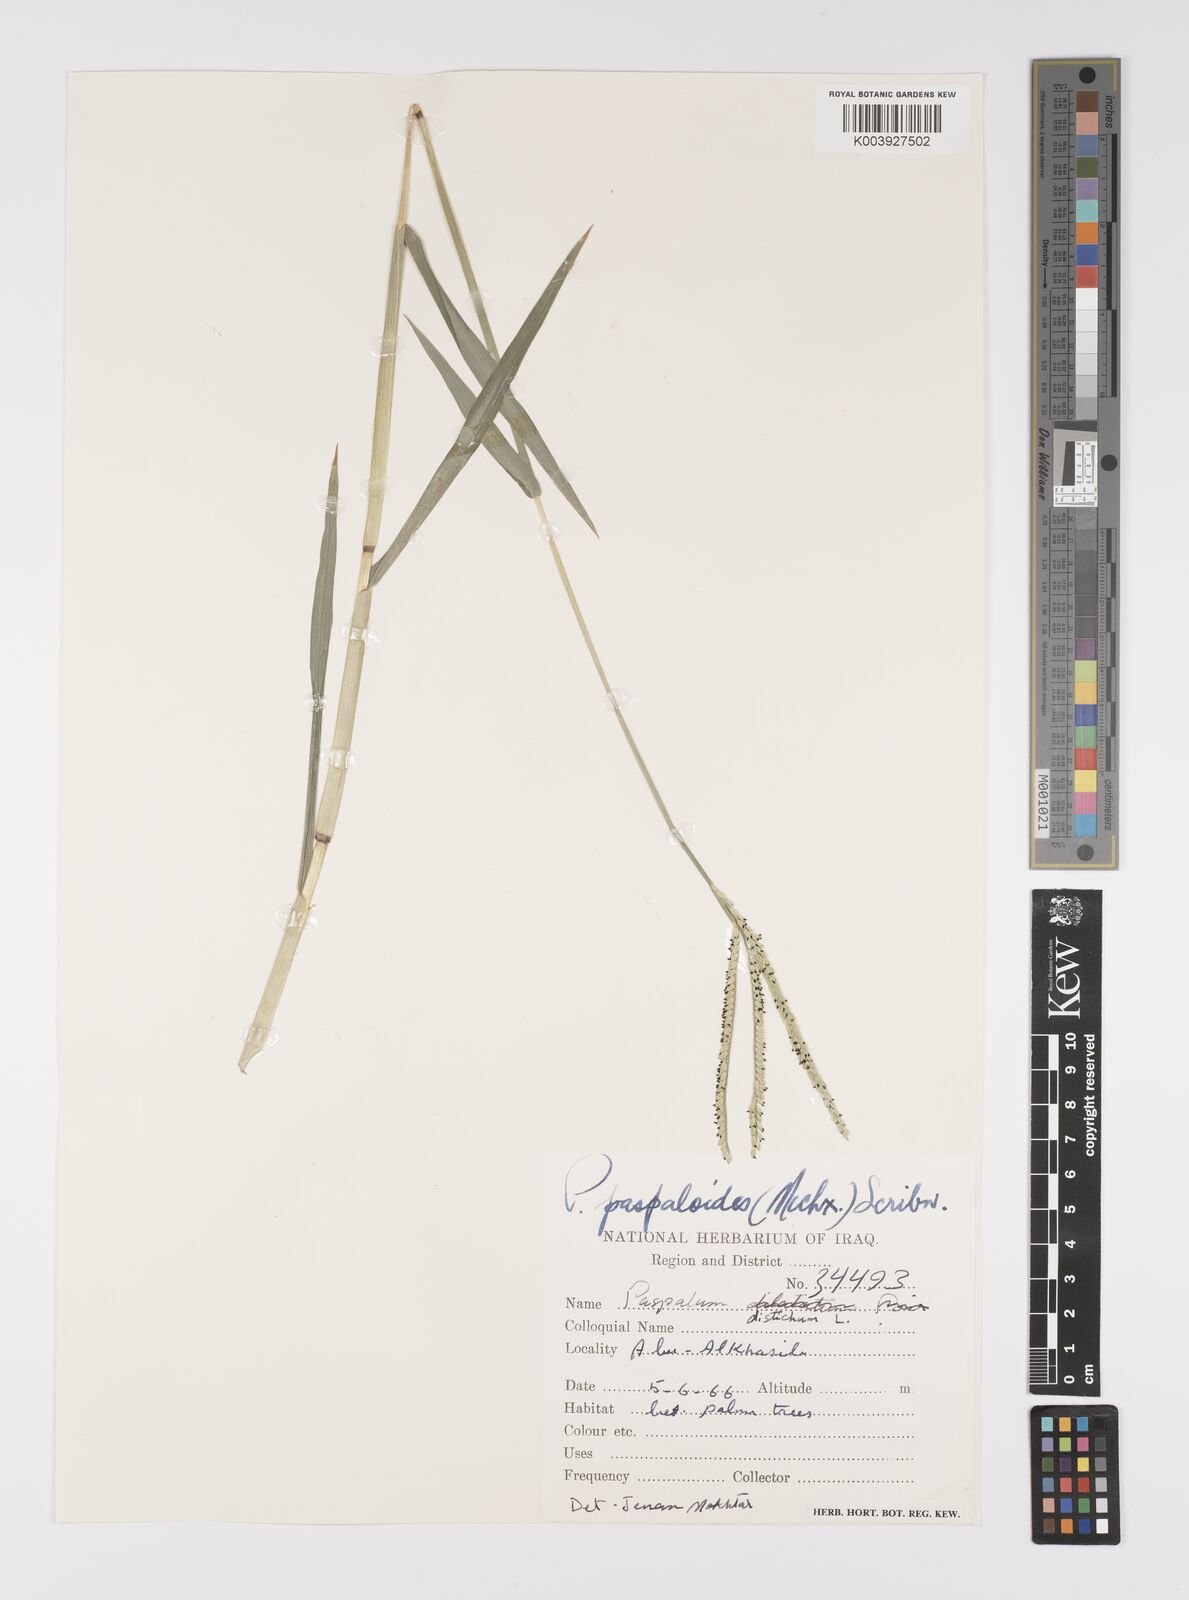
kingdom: Plantae
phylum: Tracheophyta
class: Liliopsida
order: Poales
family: Poaceae
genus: Paspalum
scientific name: Paspalum distichum
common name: Knotgrass
